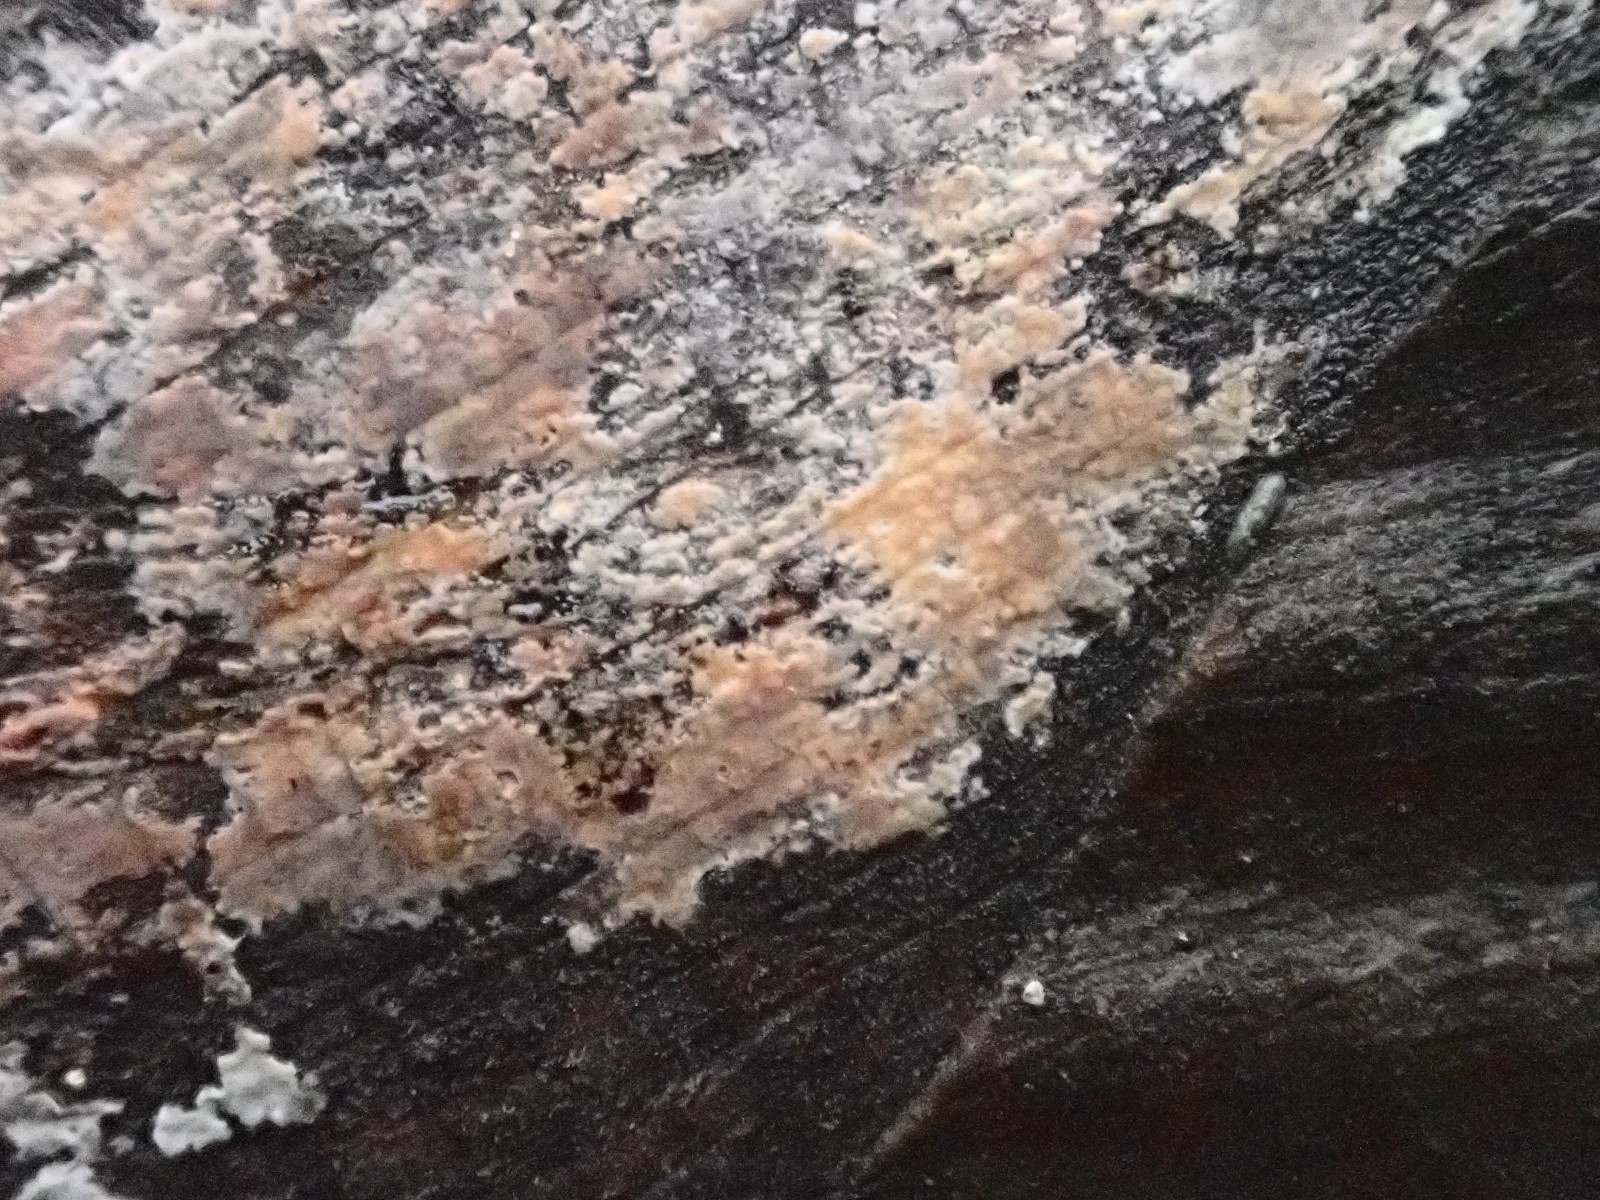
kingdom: Fungi
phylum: Basidiomycota
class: Agaricomycetes
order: Russulales
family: Peniophoraceae
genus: Peniophora
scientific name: Peniophora incarnata
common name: laksefarvet voksskind
